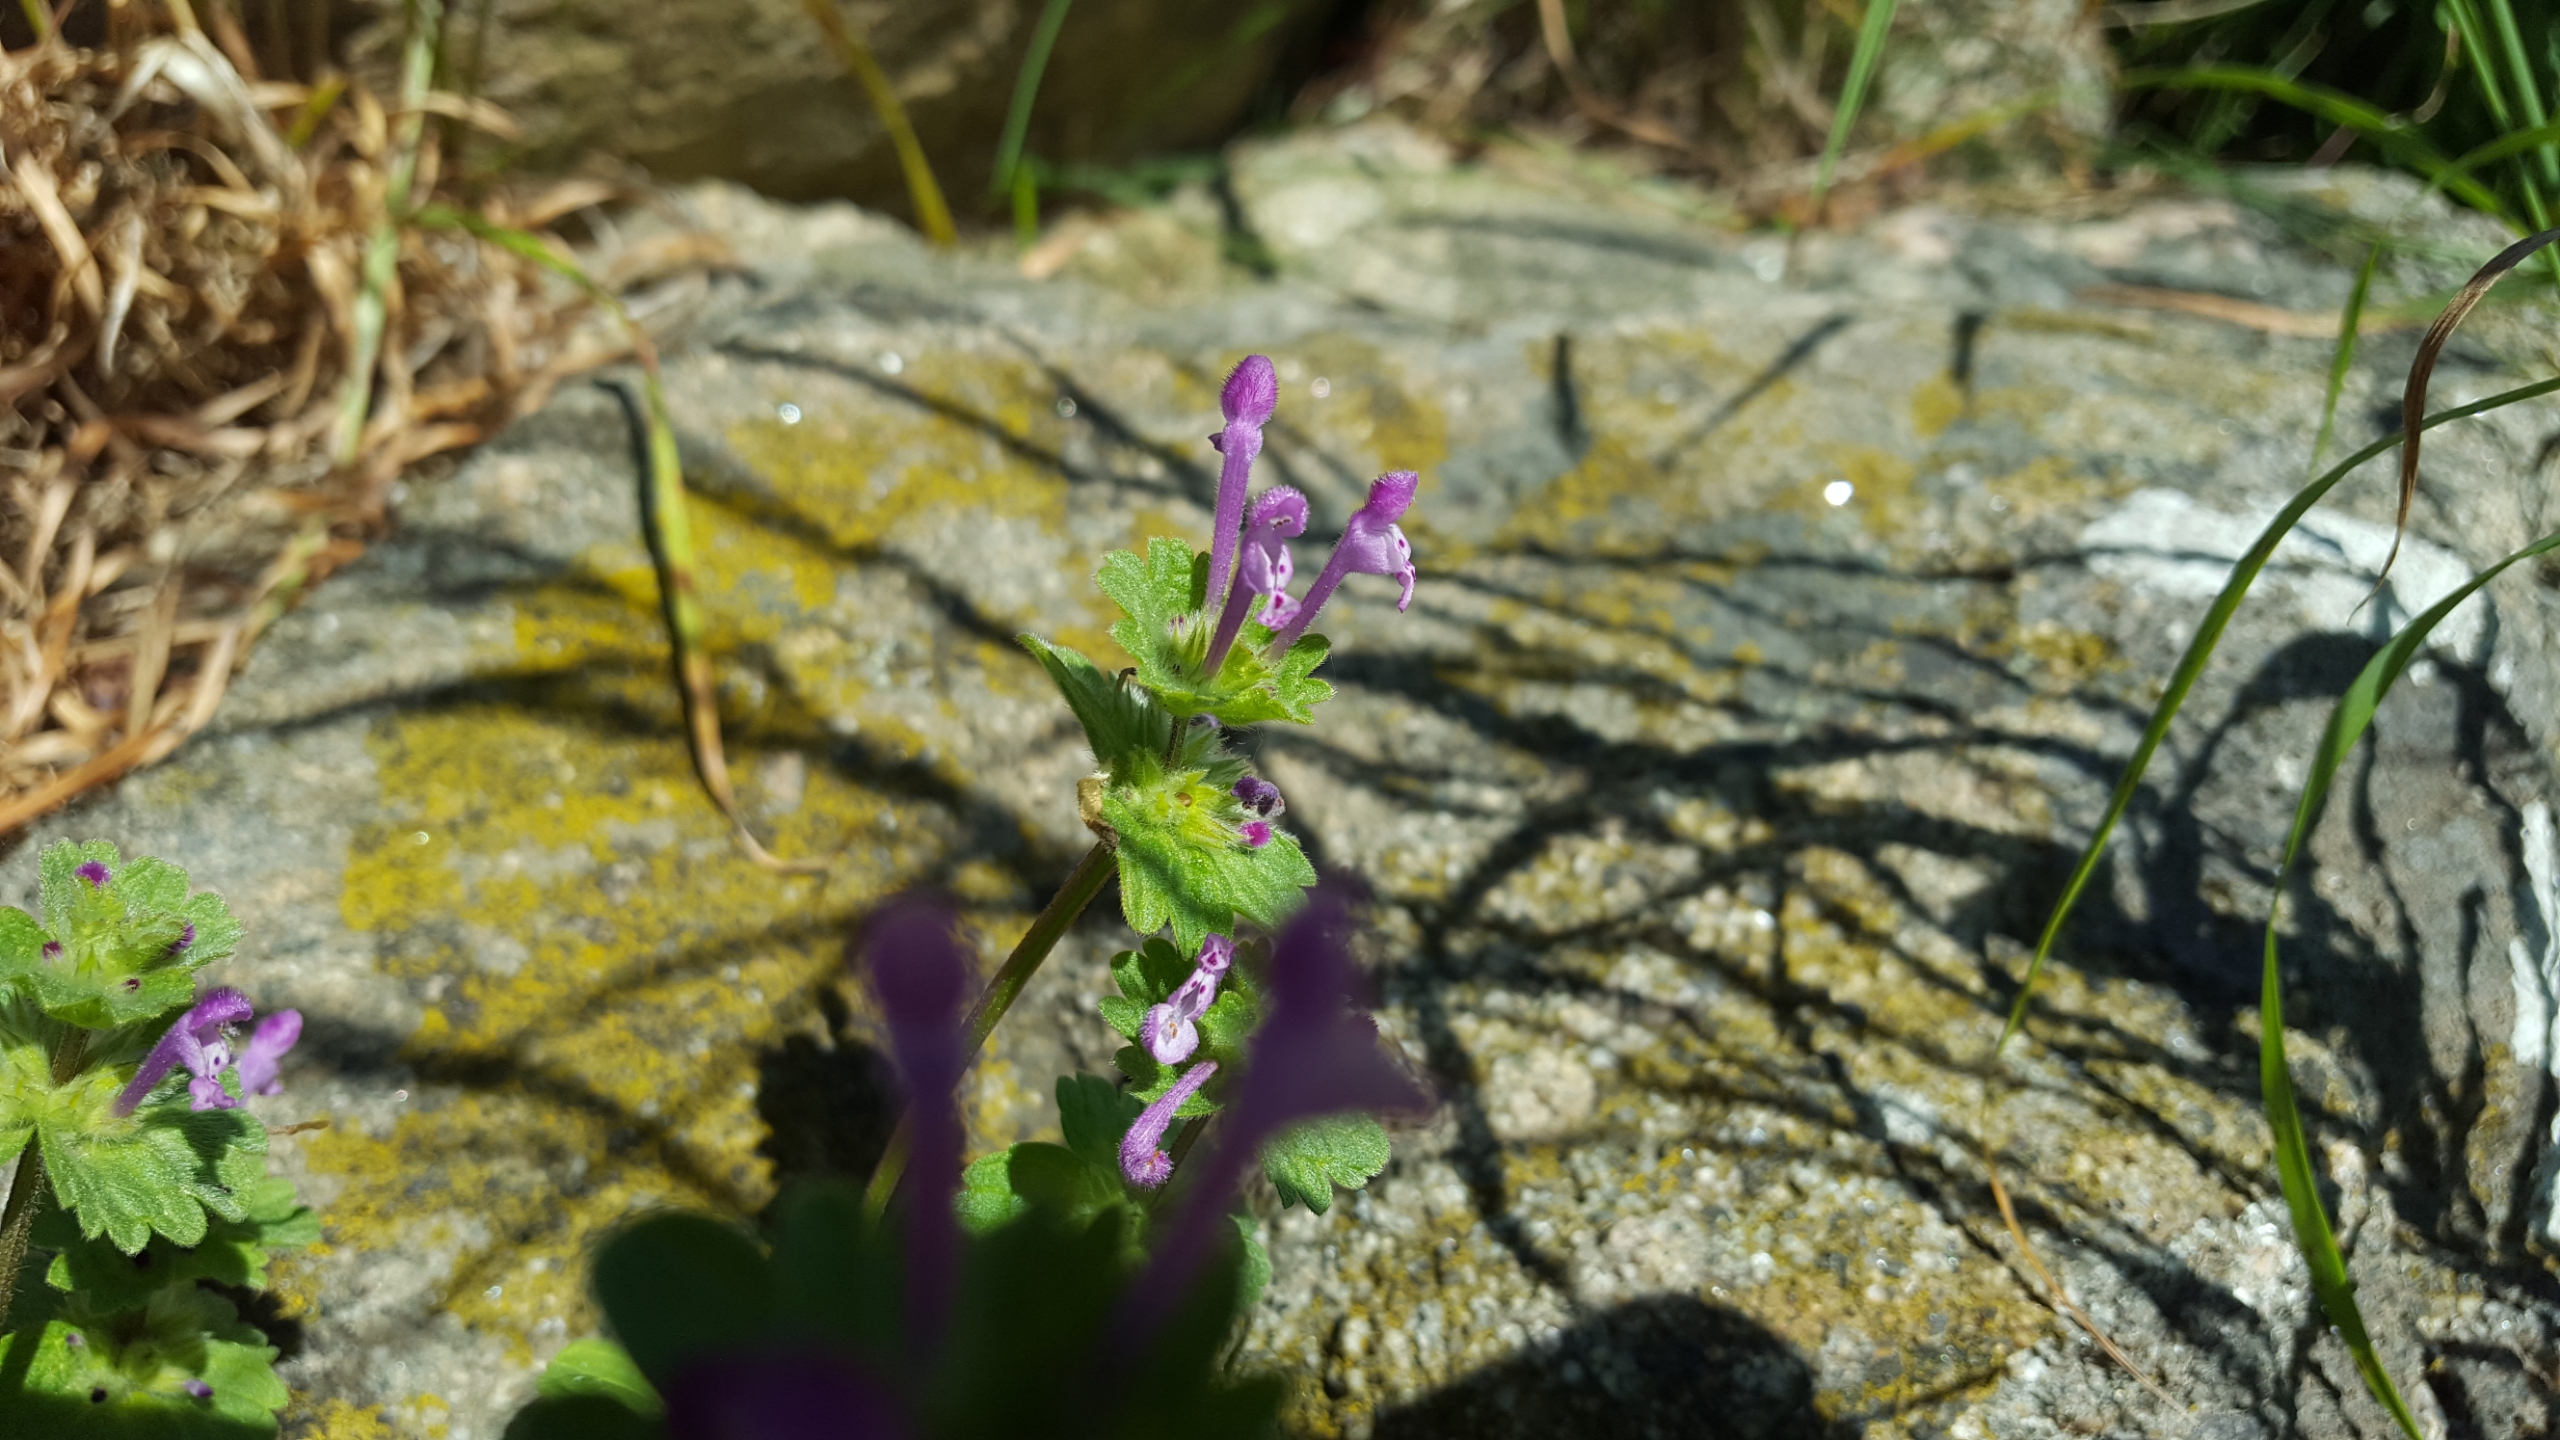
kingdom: Plantae
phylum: Tracheophyta
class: Magnoliopsida
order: Lamiales
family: Lamiaceae
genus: Lamium
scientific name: Lamium amplexicaule
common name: Liden tvetand
